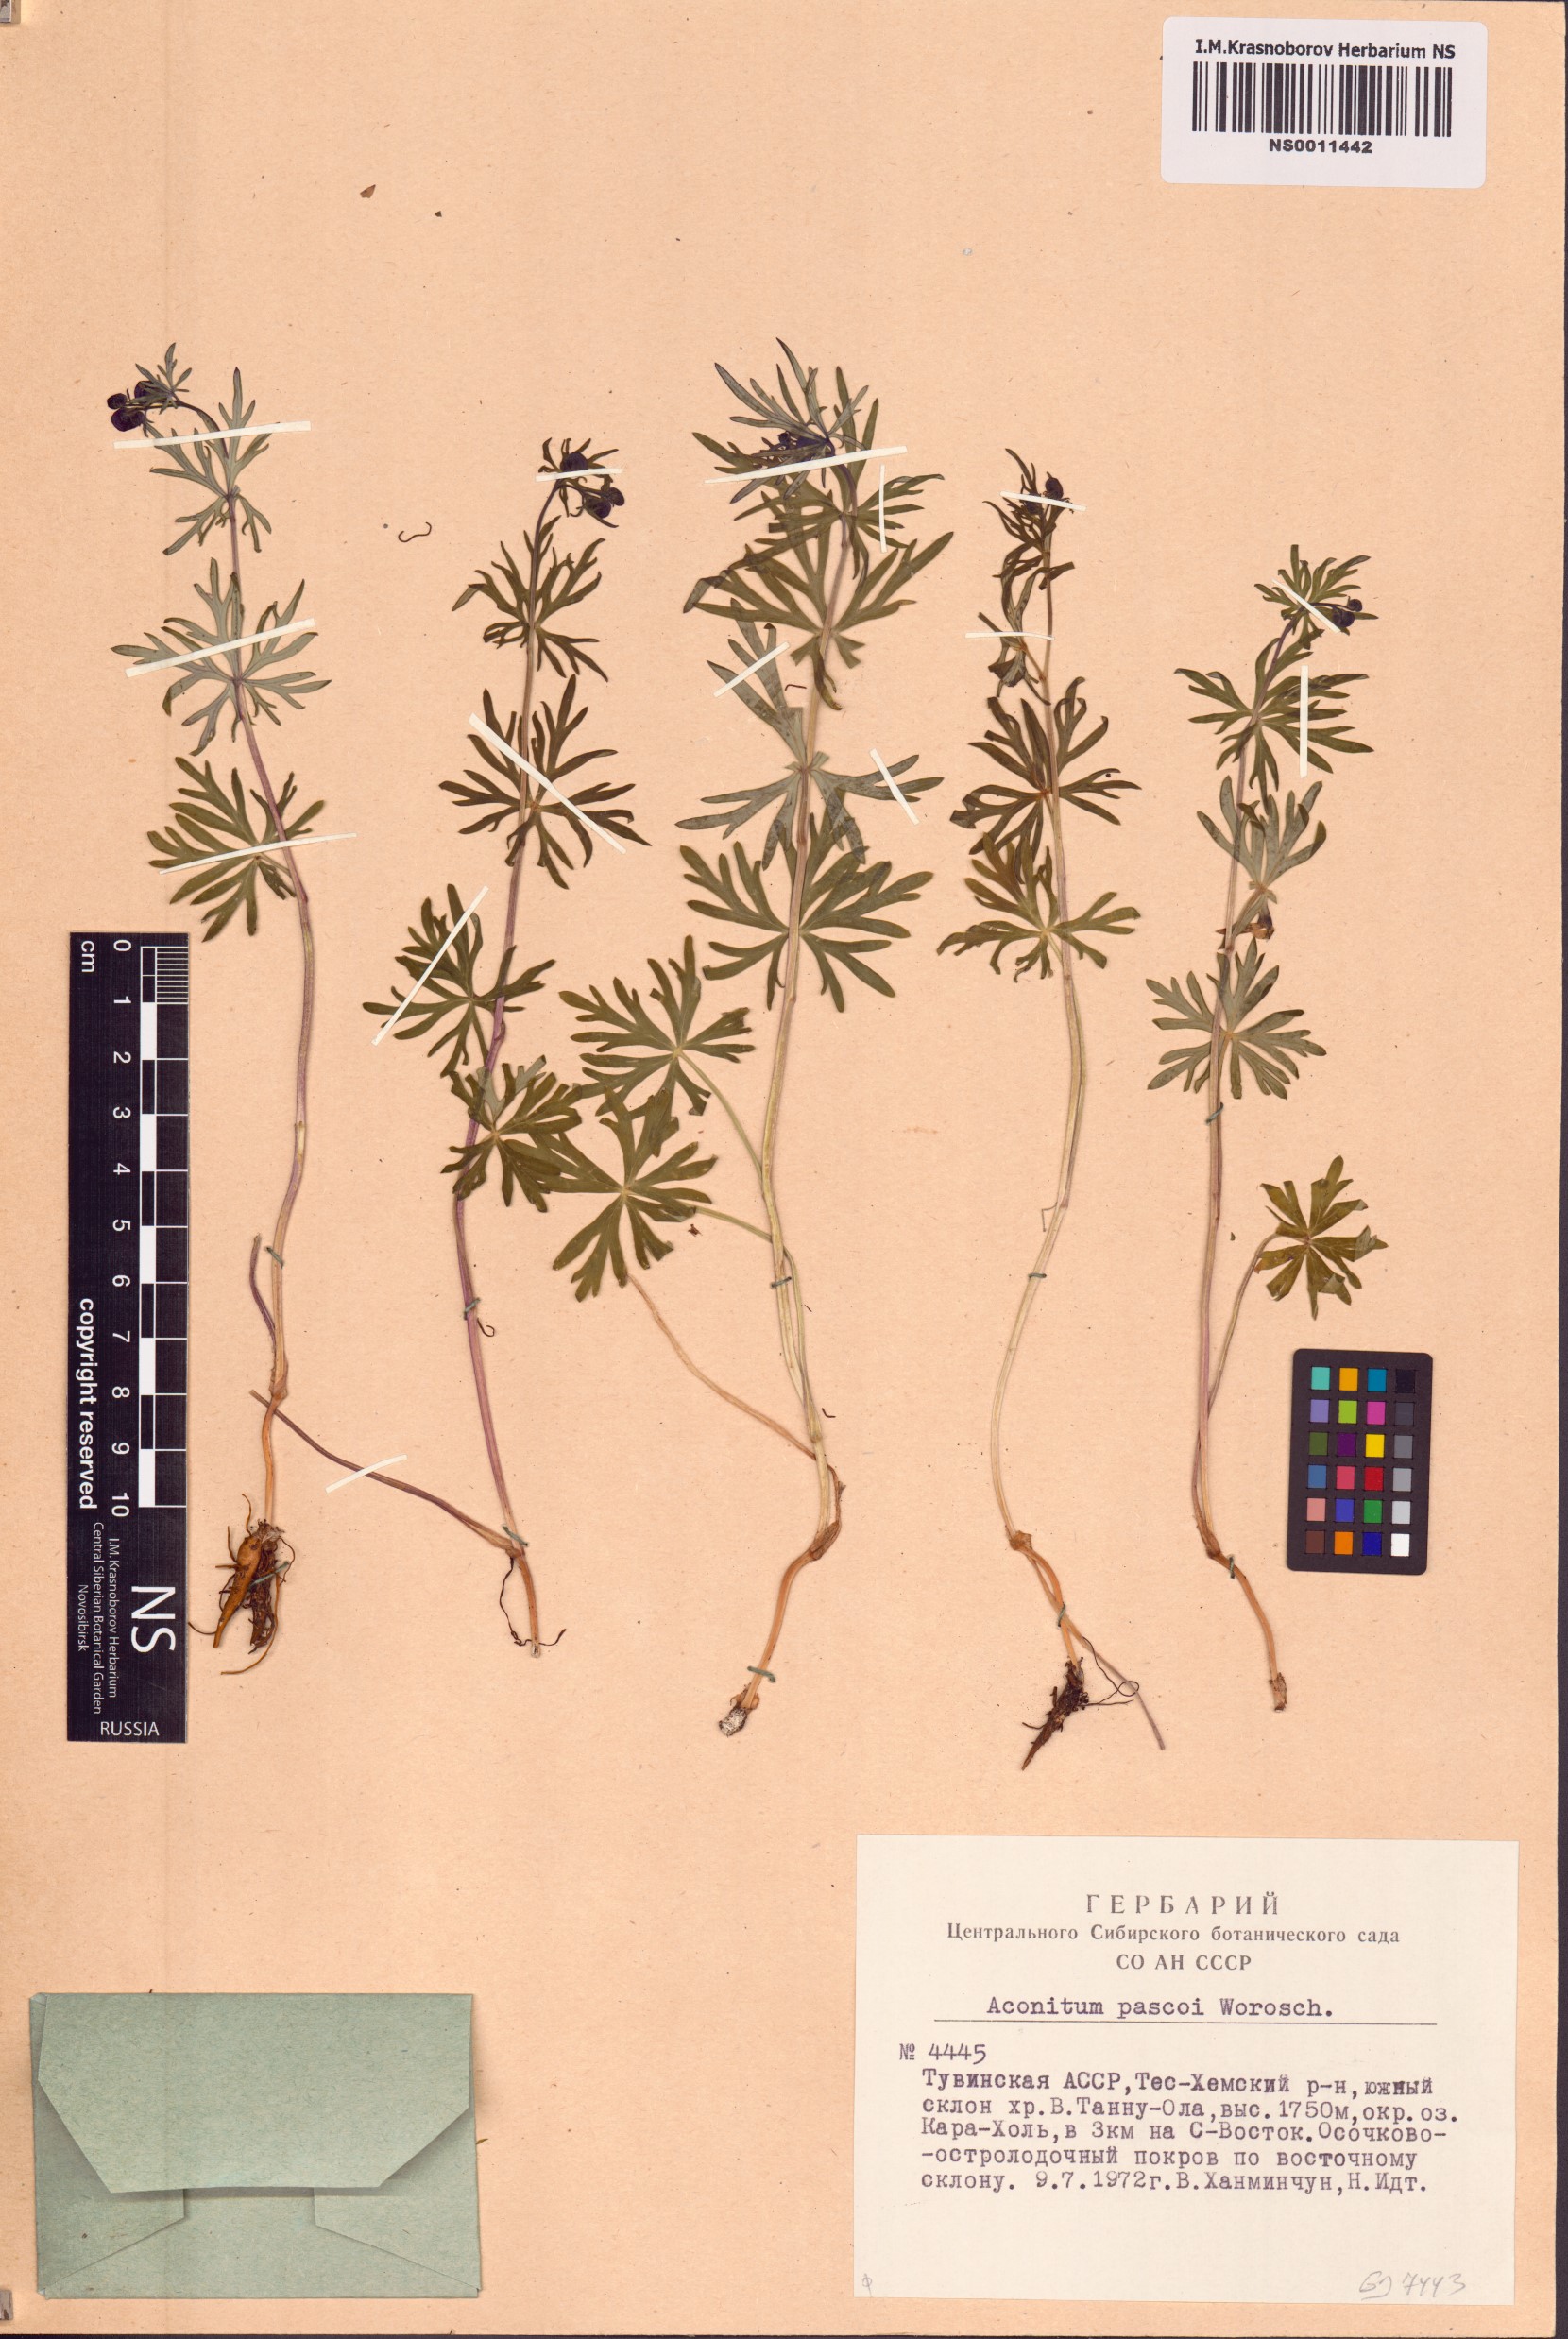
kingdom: Plantae
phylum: Tracheophyta
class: Magnoliopsida
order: Ranunculales
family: Ranunculaceae
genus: Aconitum
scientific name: Aconitum pascoi
